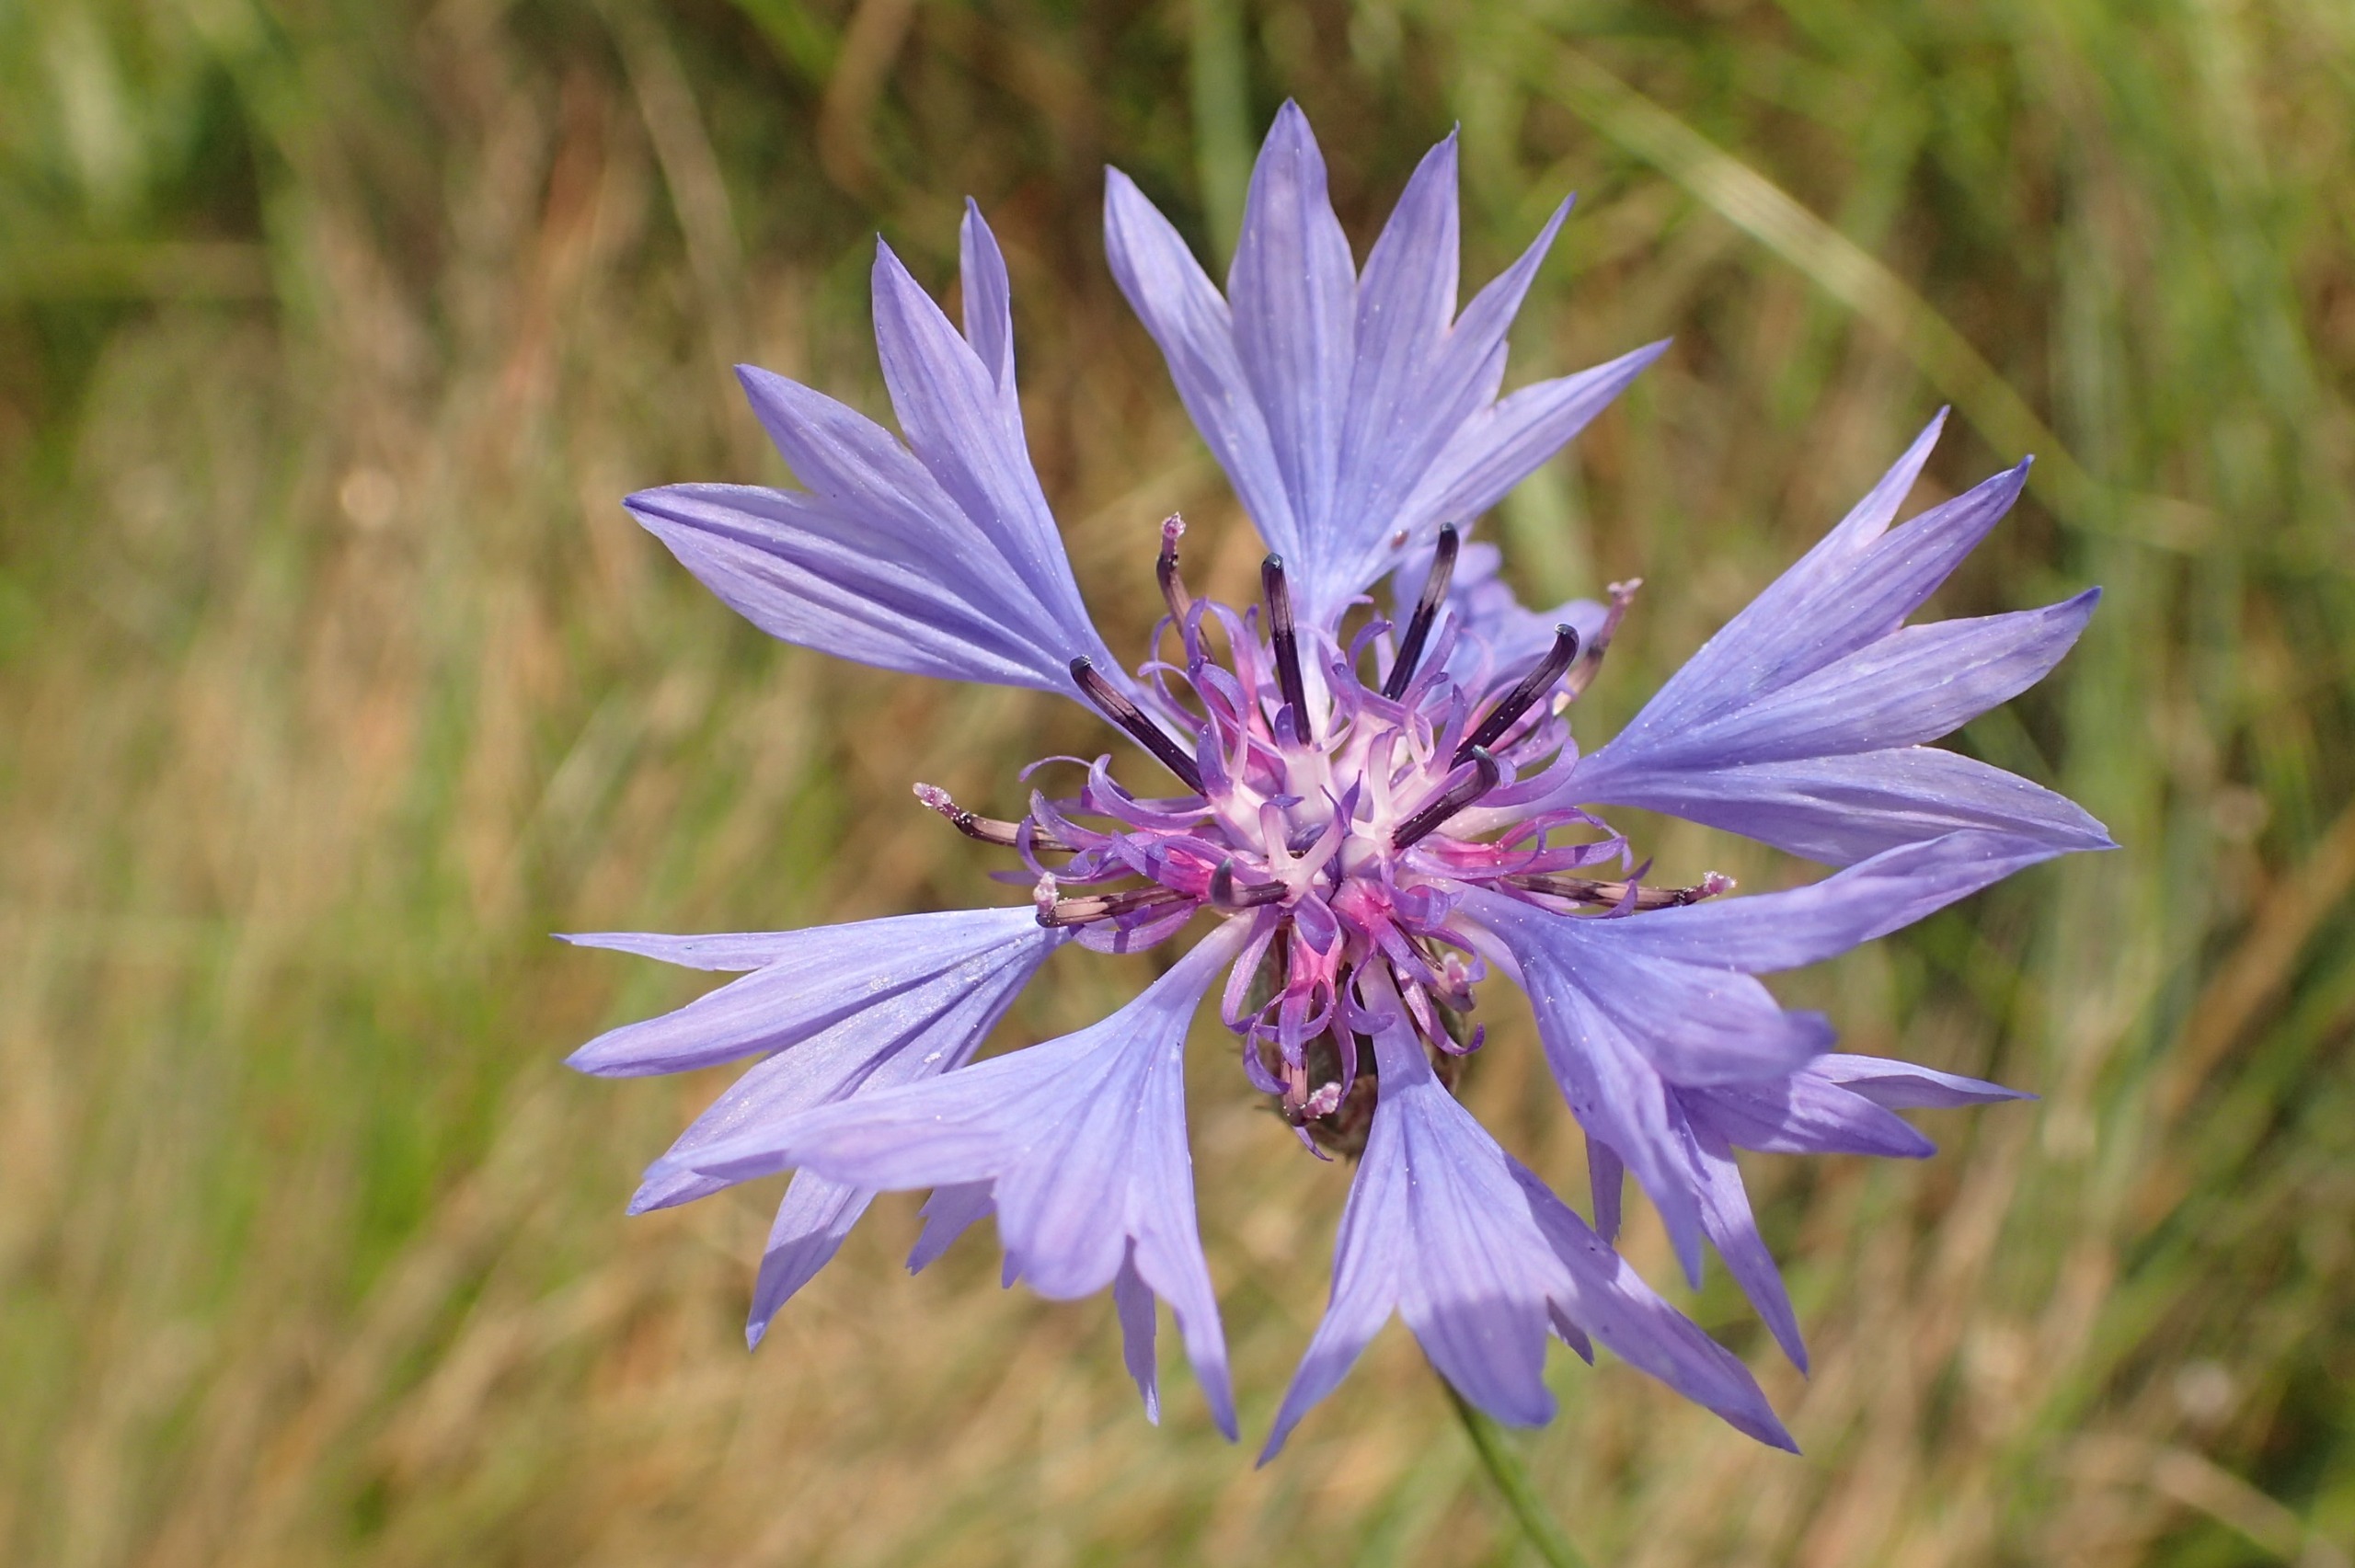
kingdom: Plantae
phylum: Tracheophyta
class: Magnoliopsida
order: Asterales
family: Asteraceae
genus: Centaurea
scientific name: Centaurea cyanus
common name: Kornblomst
